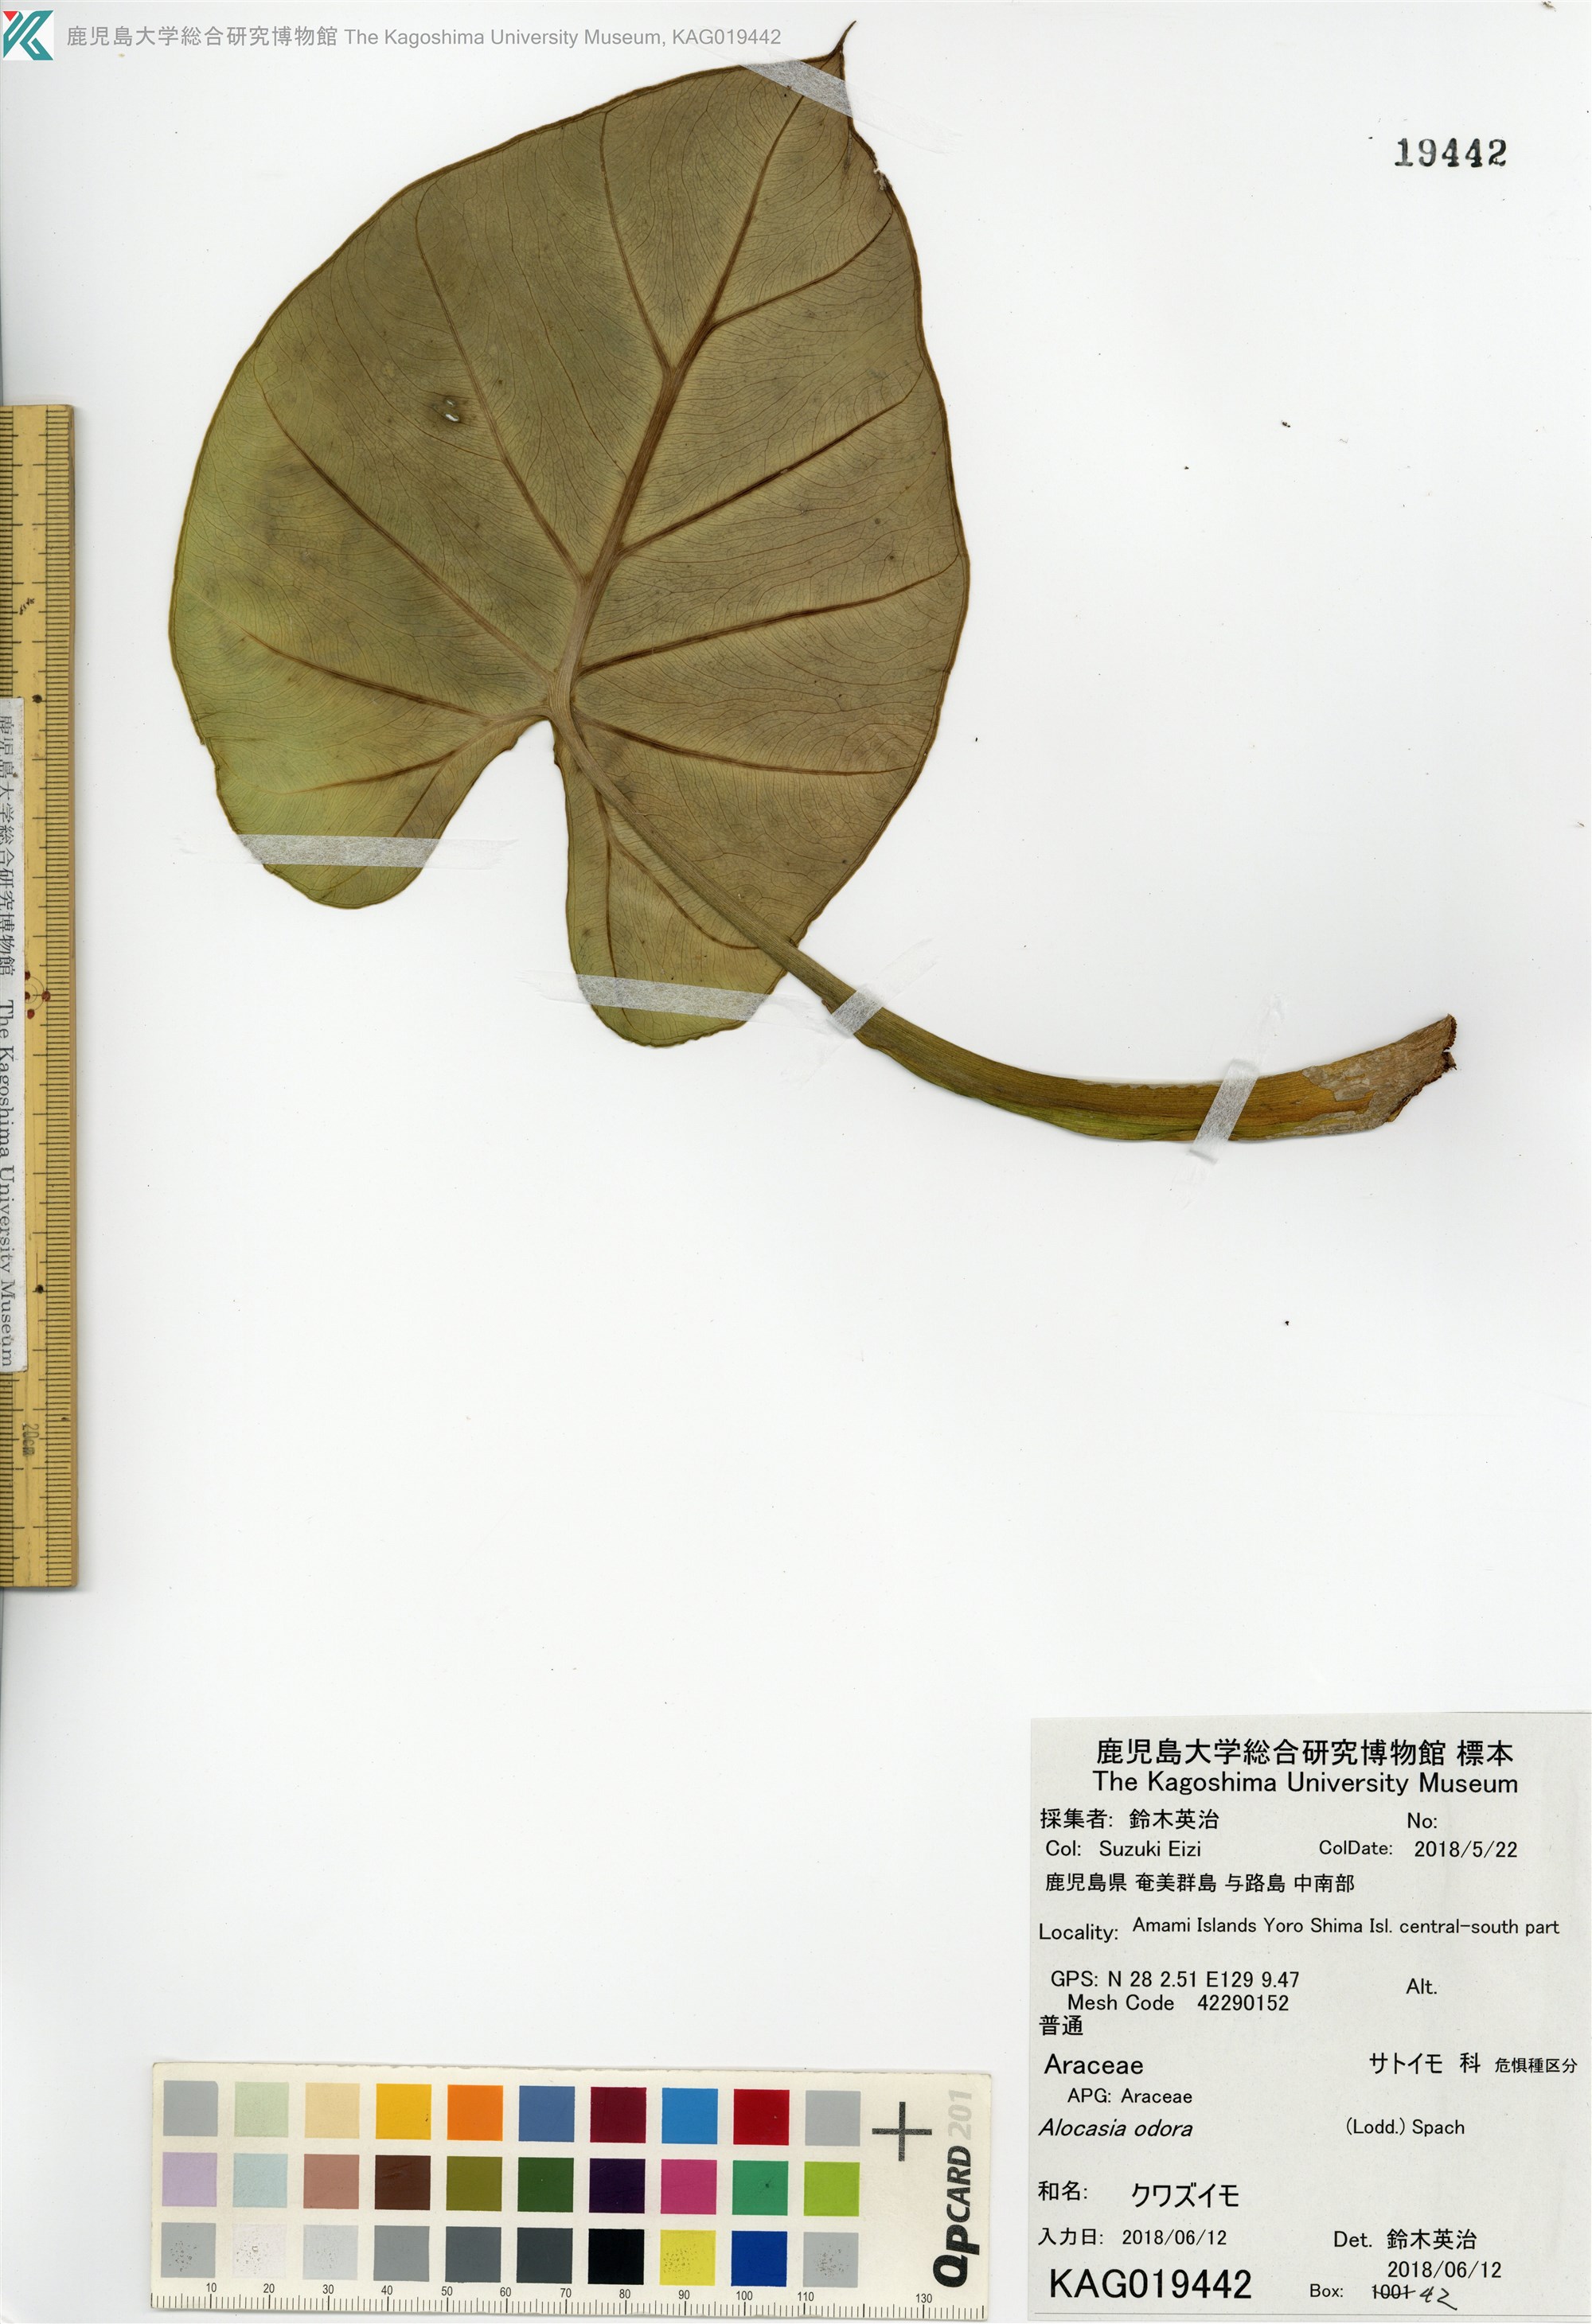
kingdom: Plantae
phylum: Tracheophyta
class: Liliopsida
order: Alismatales
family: Araceae
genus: Alocasia
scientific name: Alocasia odora
